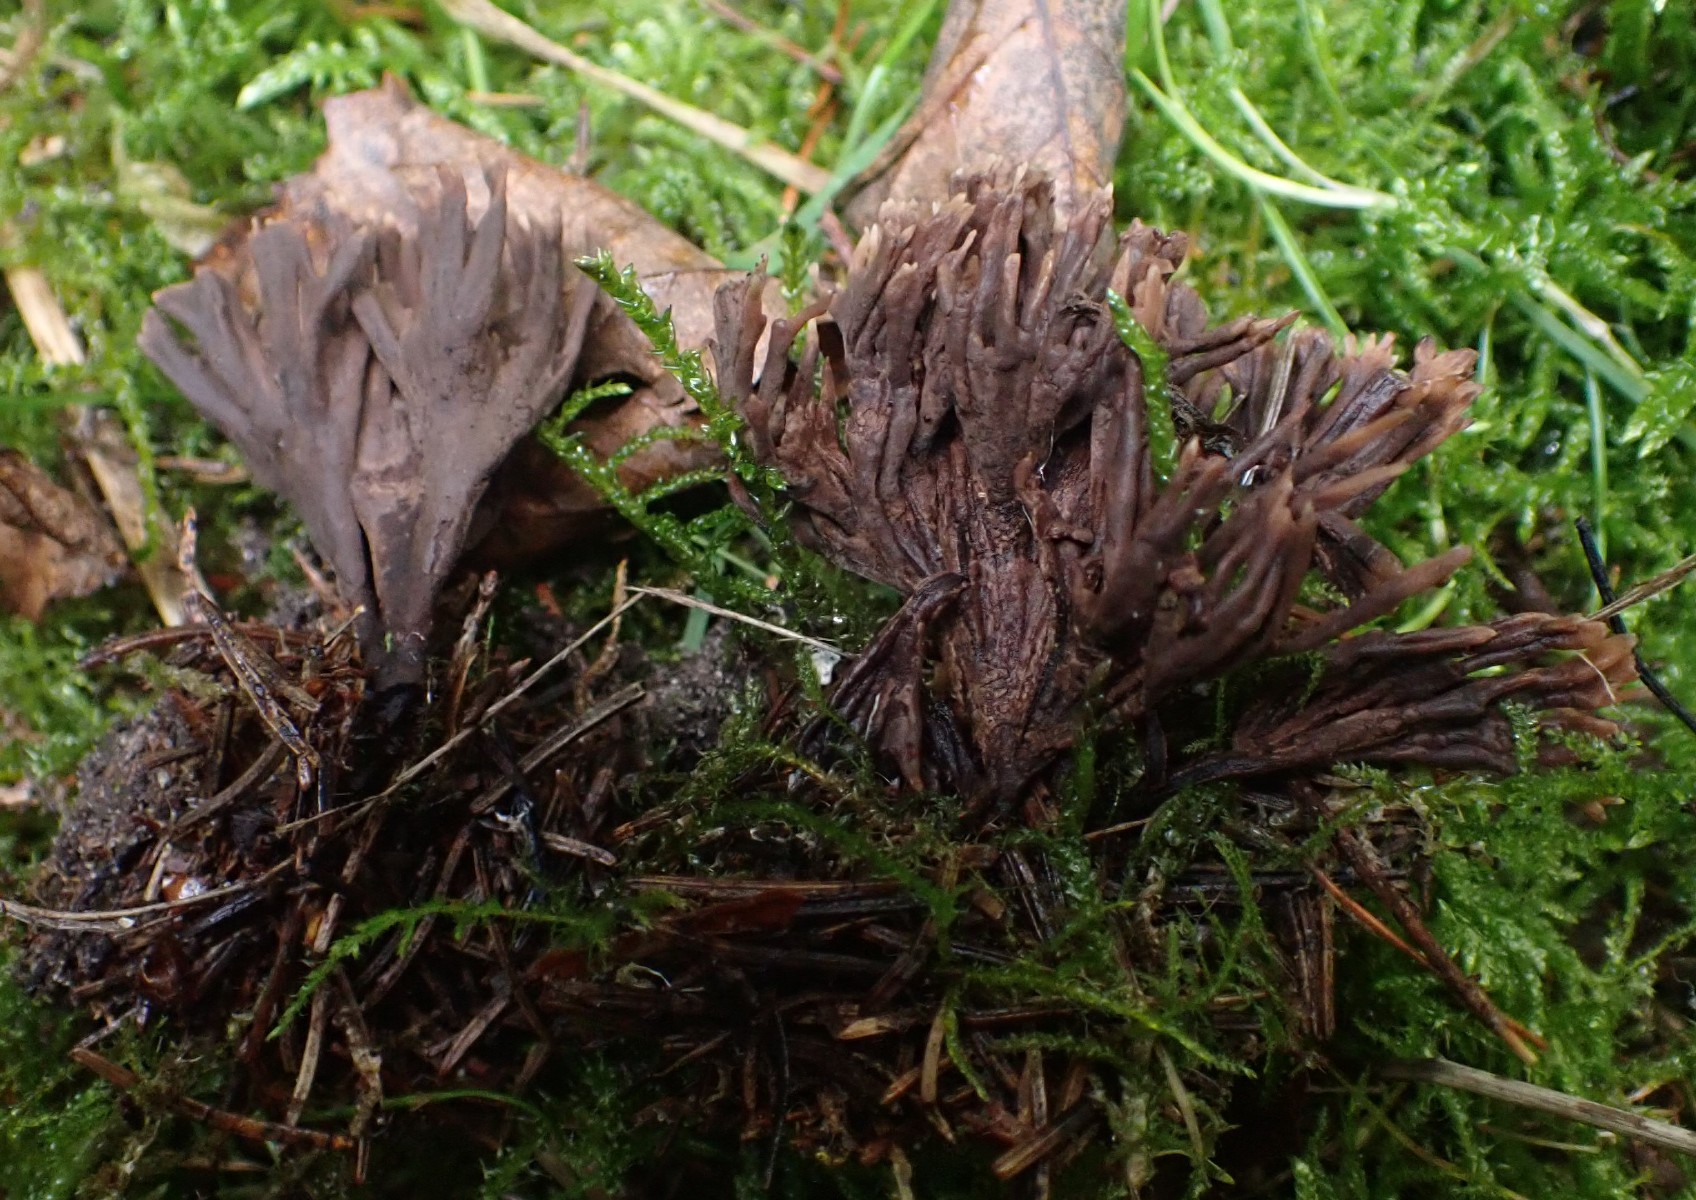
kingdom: Fungi
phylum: Basidiomycota
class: Agaricomycetes
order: Thelephorales
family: Thelephoraceae
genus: Thelephora
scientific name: Thelephora palmata
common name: grenet frynsesvamp
